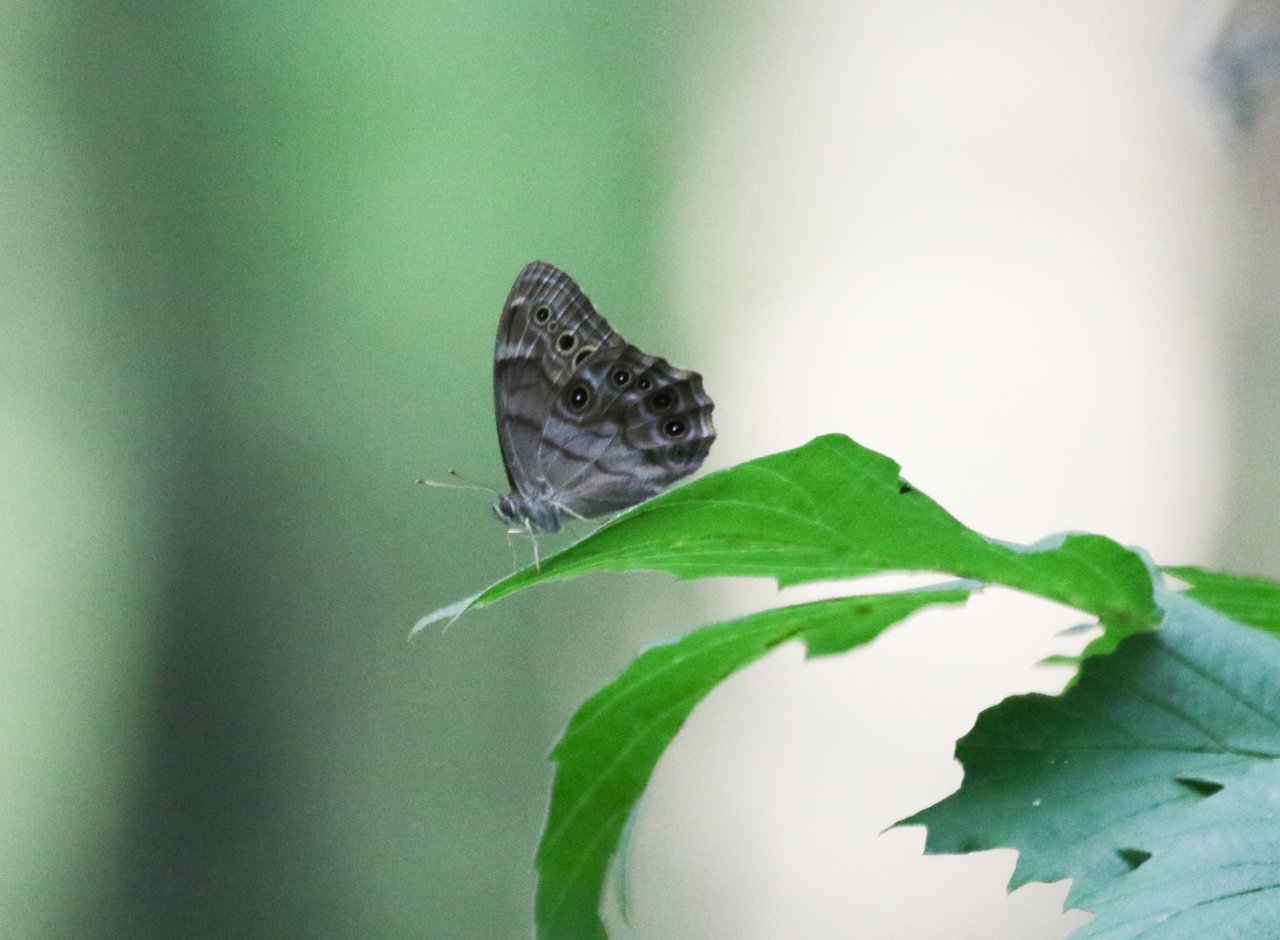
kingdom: Animalia
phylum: Arthropoda
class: Insecta
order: Lepidoptera
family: Nymphalidae
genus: Lethe
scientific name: Lethe anthedon
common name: Northern Pearly-Eye
